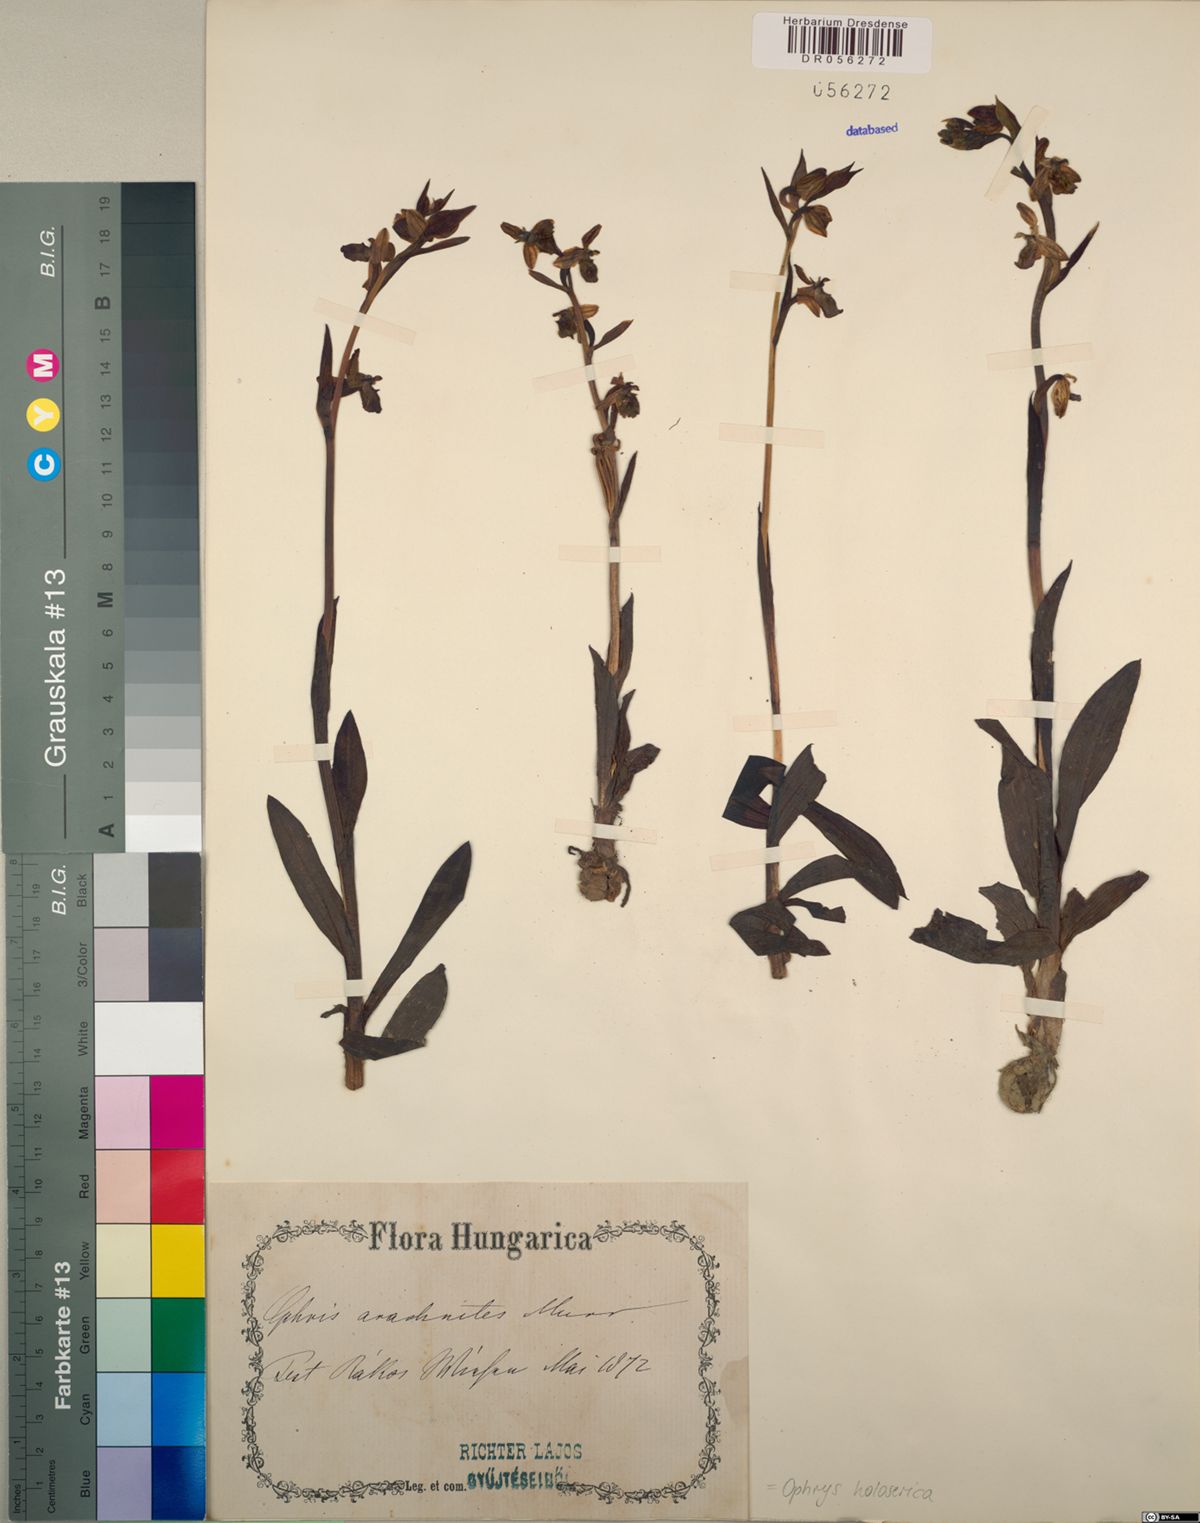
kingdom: Plantae
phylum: Tracheophyta
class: Liliopsida
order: Asparagales
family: Orchidaceae
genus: Ophrys
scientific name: Ophrys holosericea
